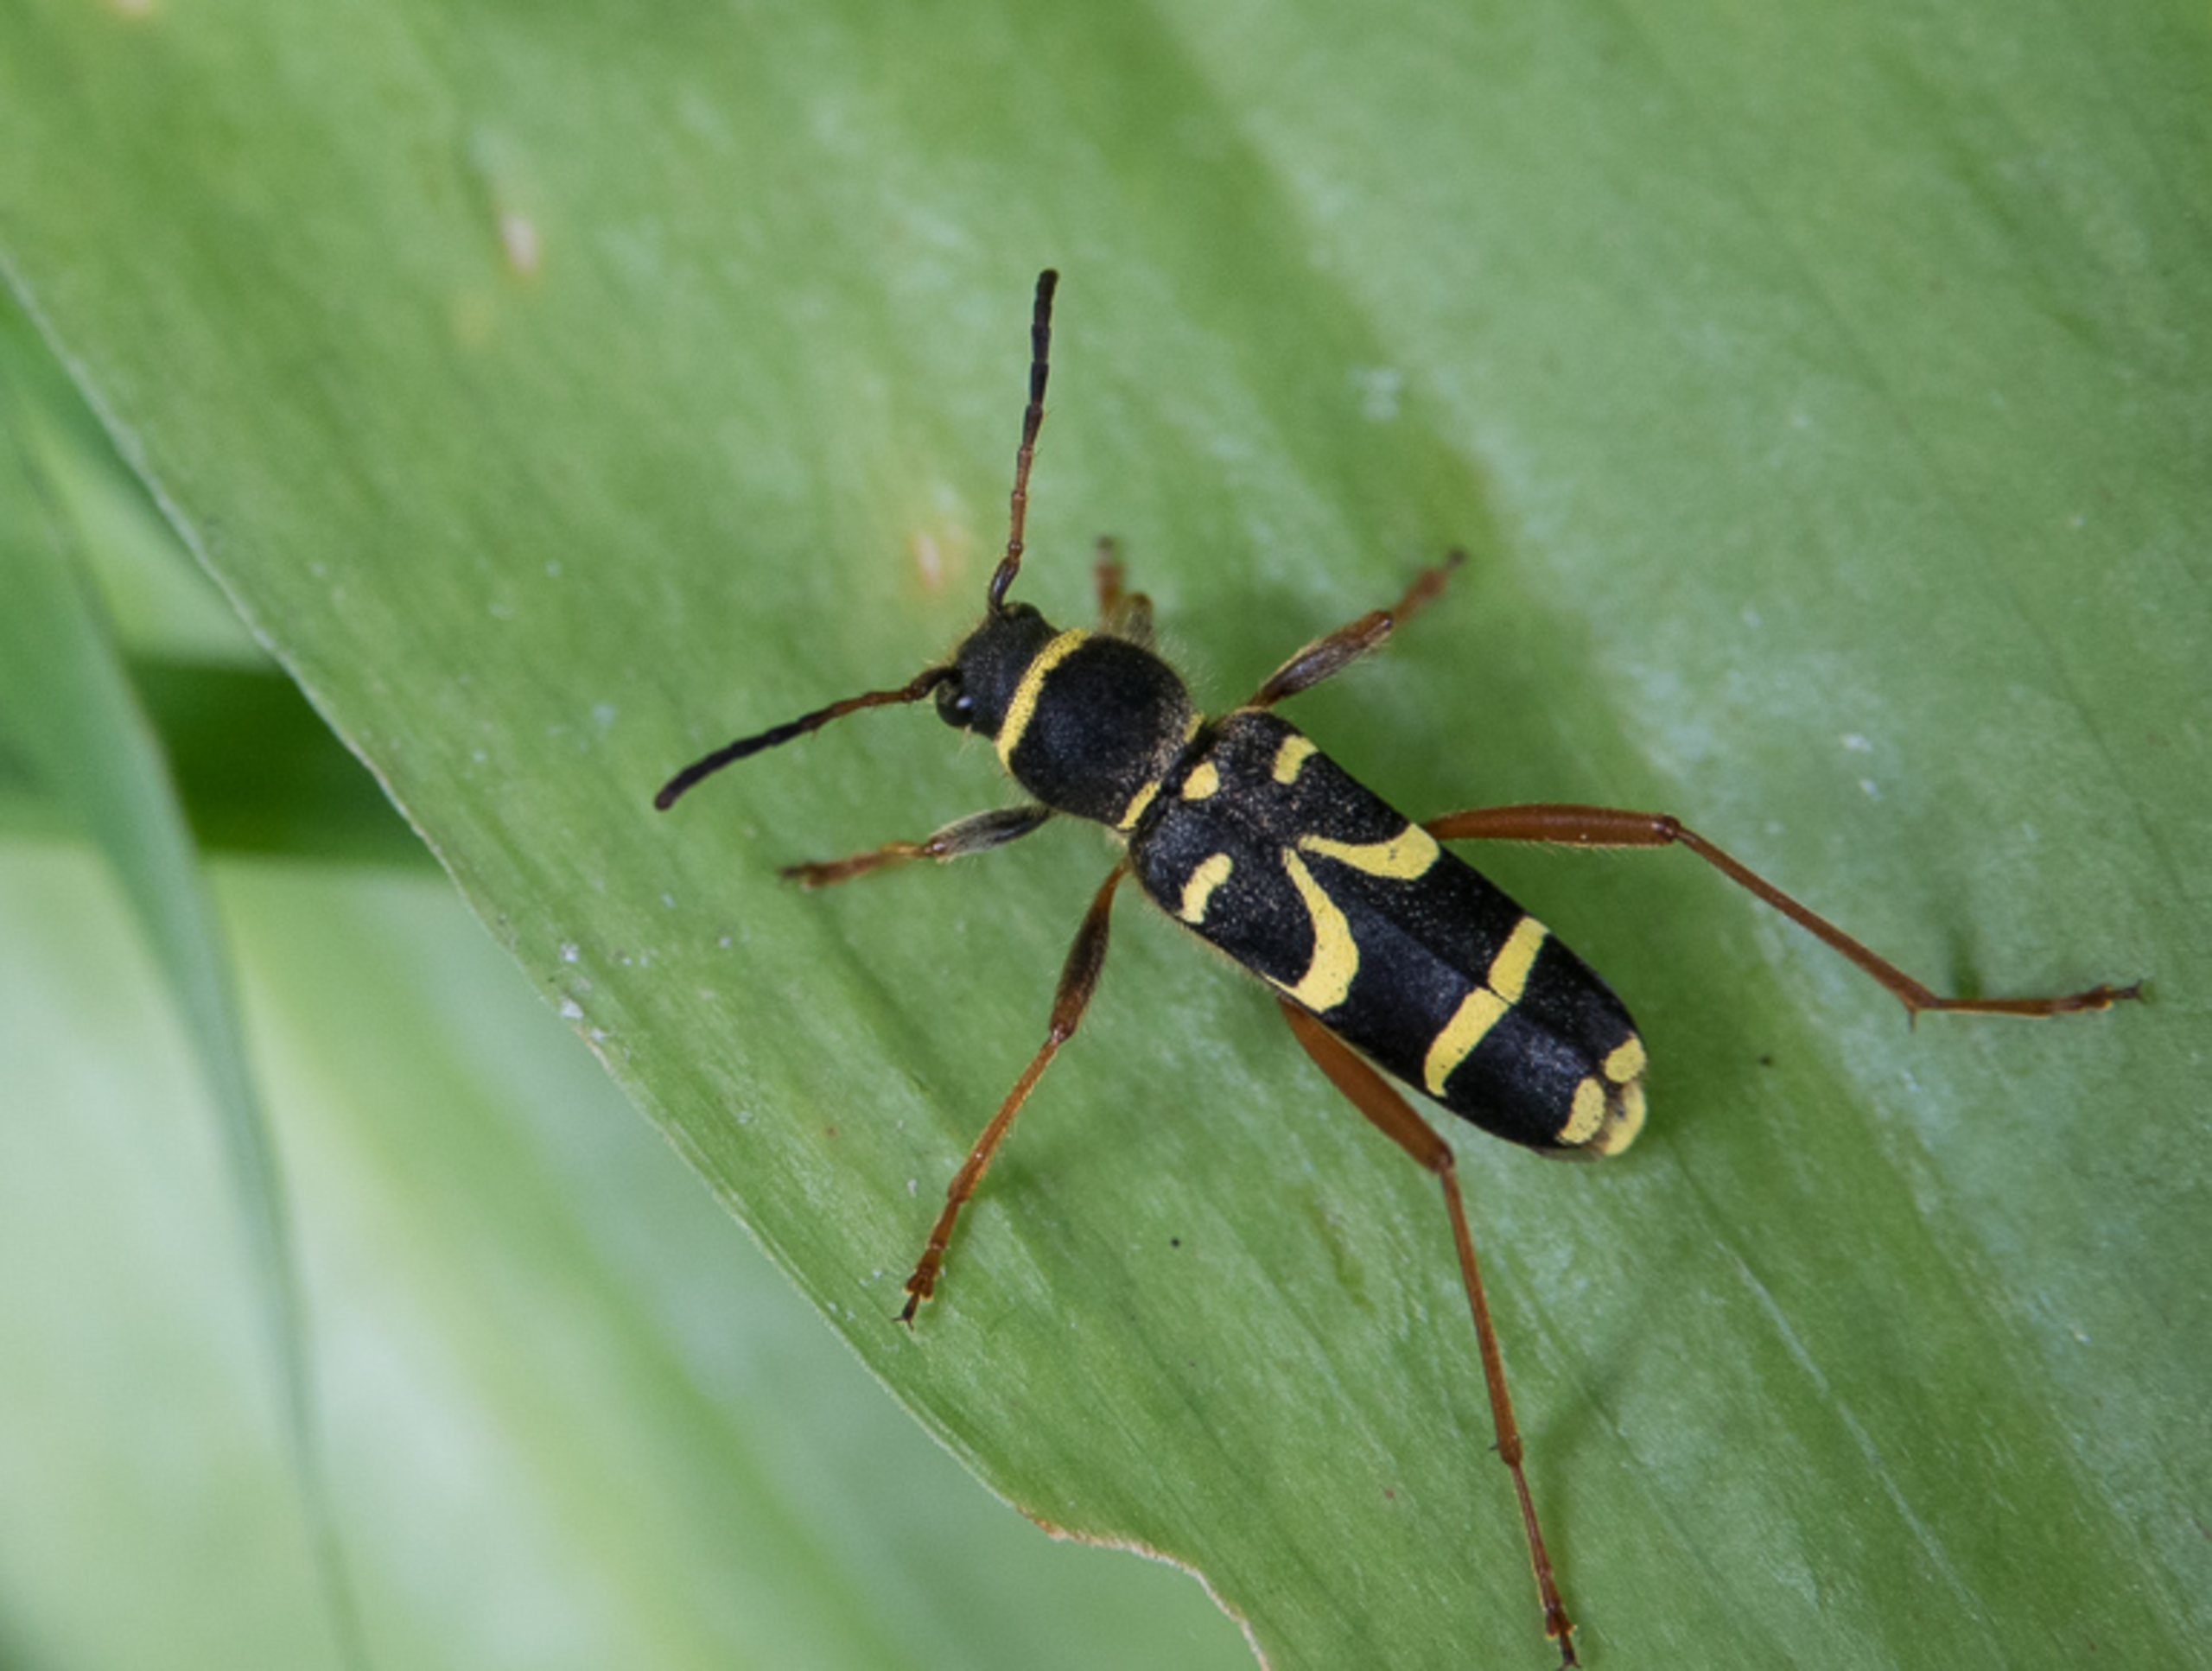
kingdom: Animalia
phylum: Arthropoda
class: Insecta
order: Coleoptera
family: Cerambycidae
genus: Clytus
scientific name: Clytus arietis
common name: Lille hvepsebuk
